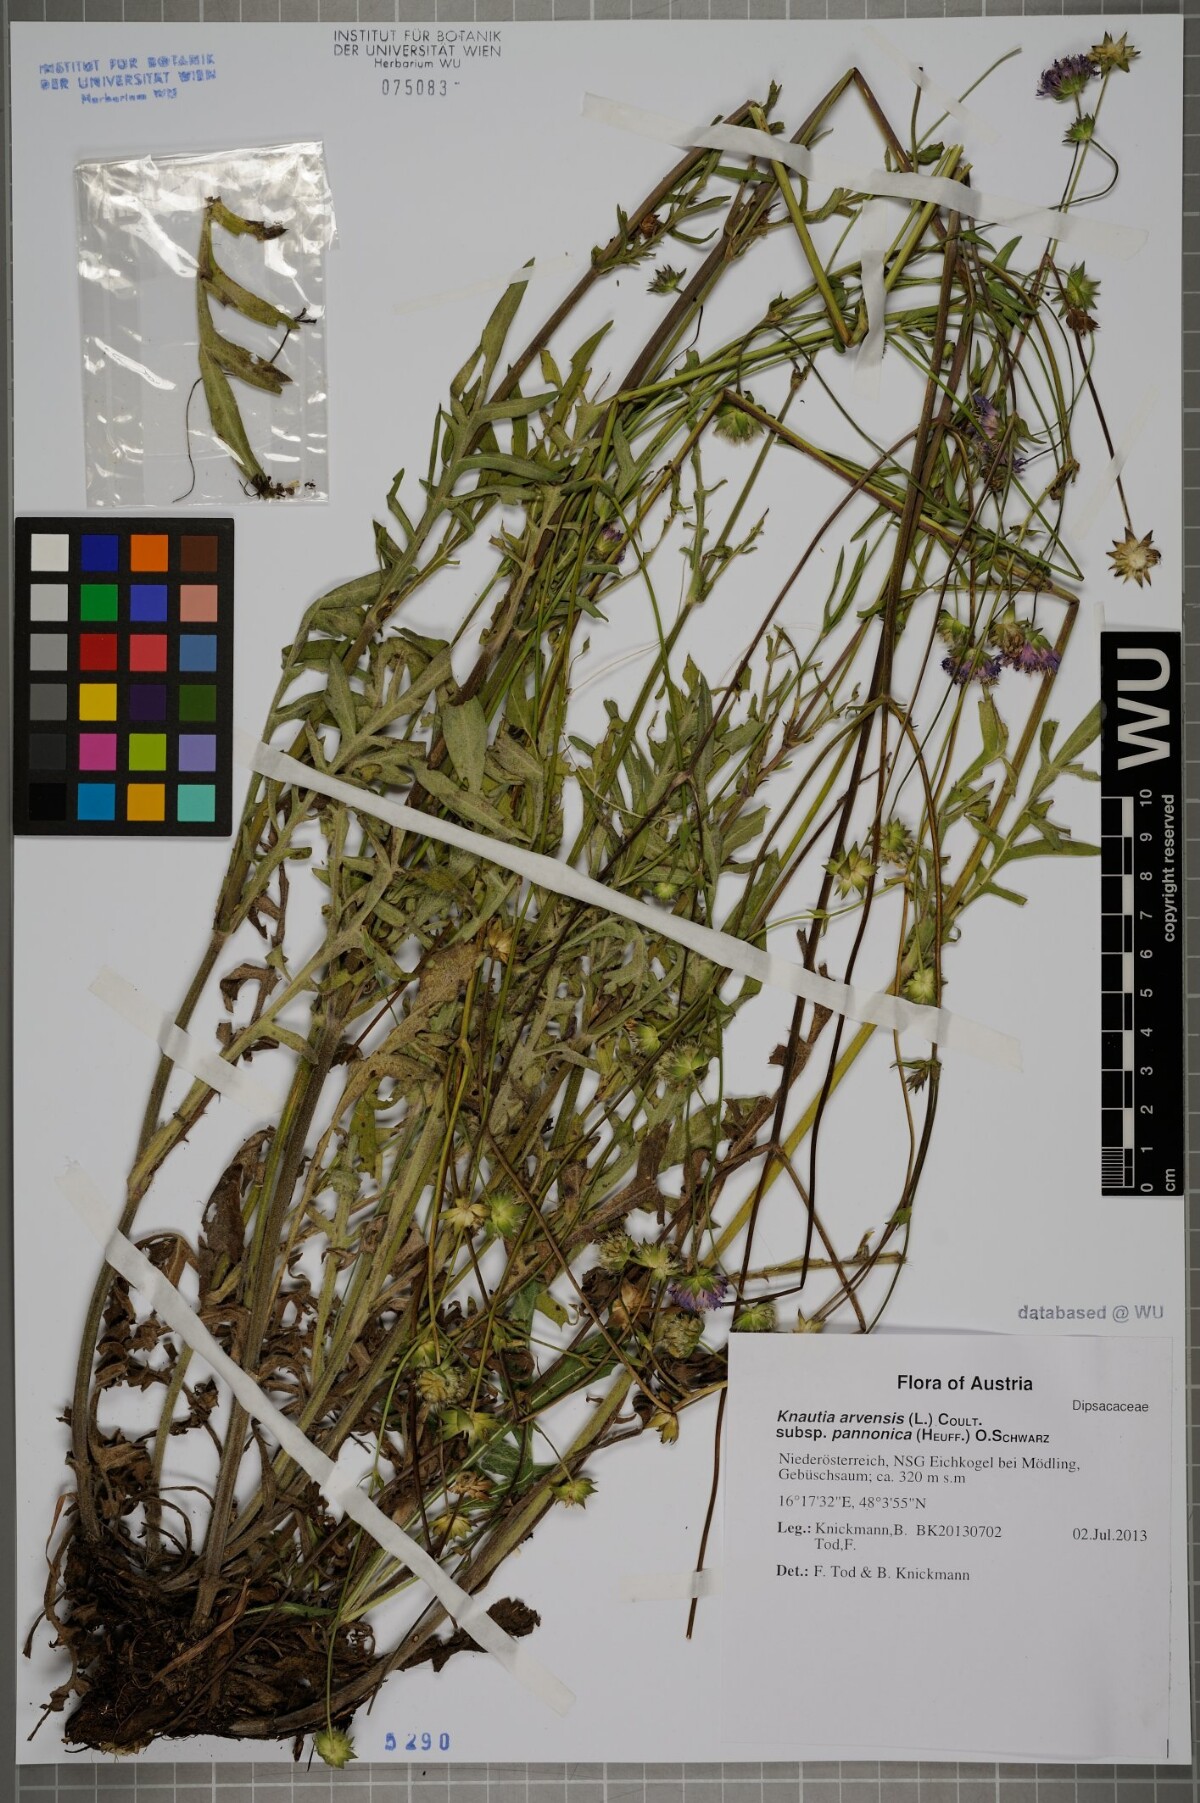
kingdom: Plantae
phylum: Tracheophyta
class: Magnoliopsida
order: Dipsacales
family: Caprifoliaceae
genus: Knautia
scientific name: Knautia arvensis
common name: Field scabiosa
